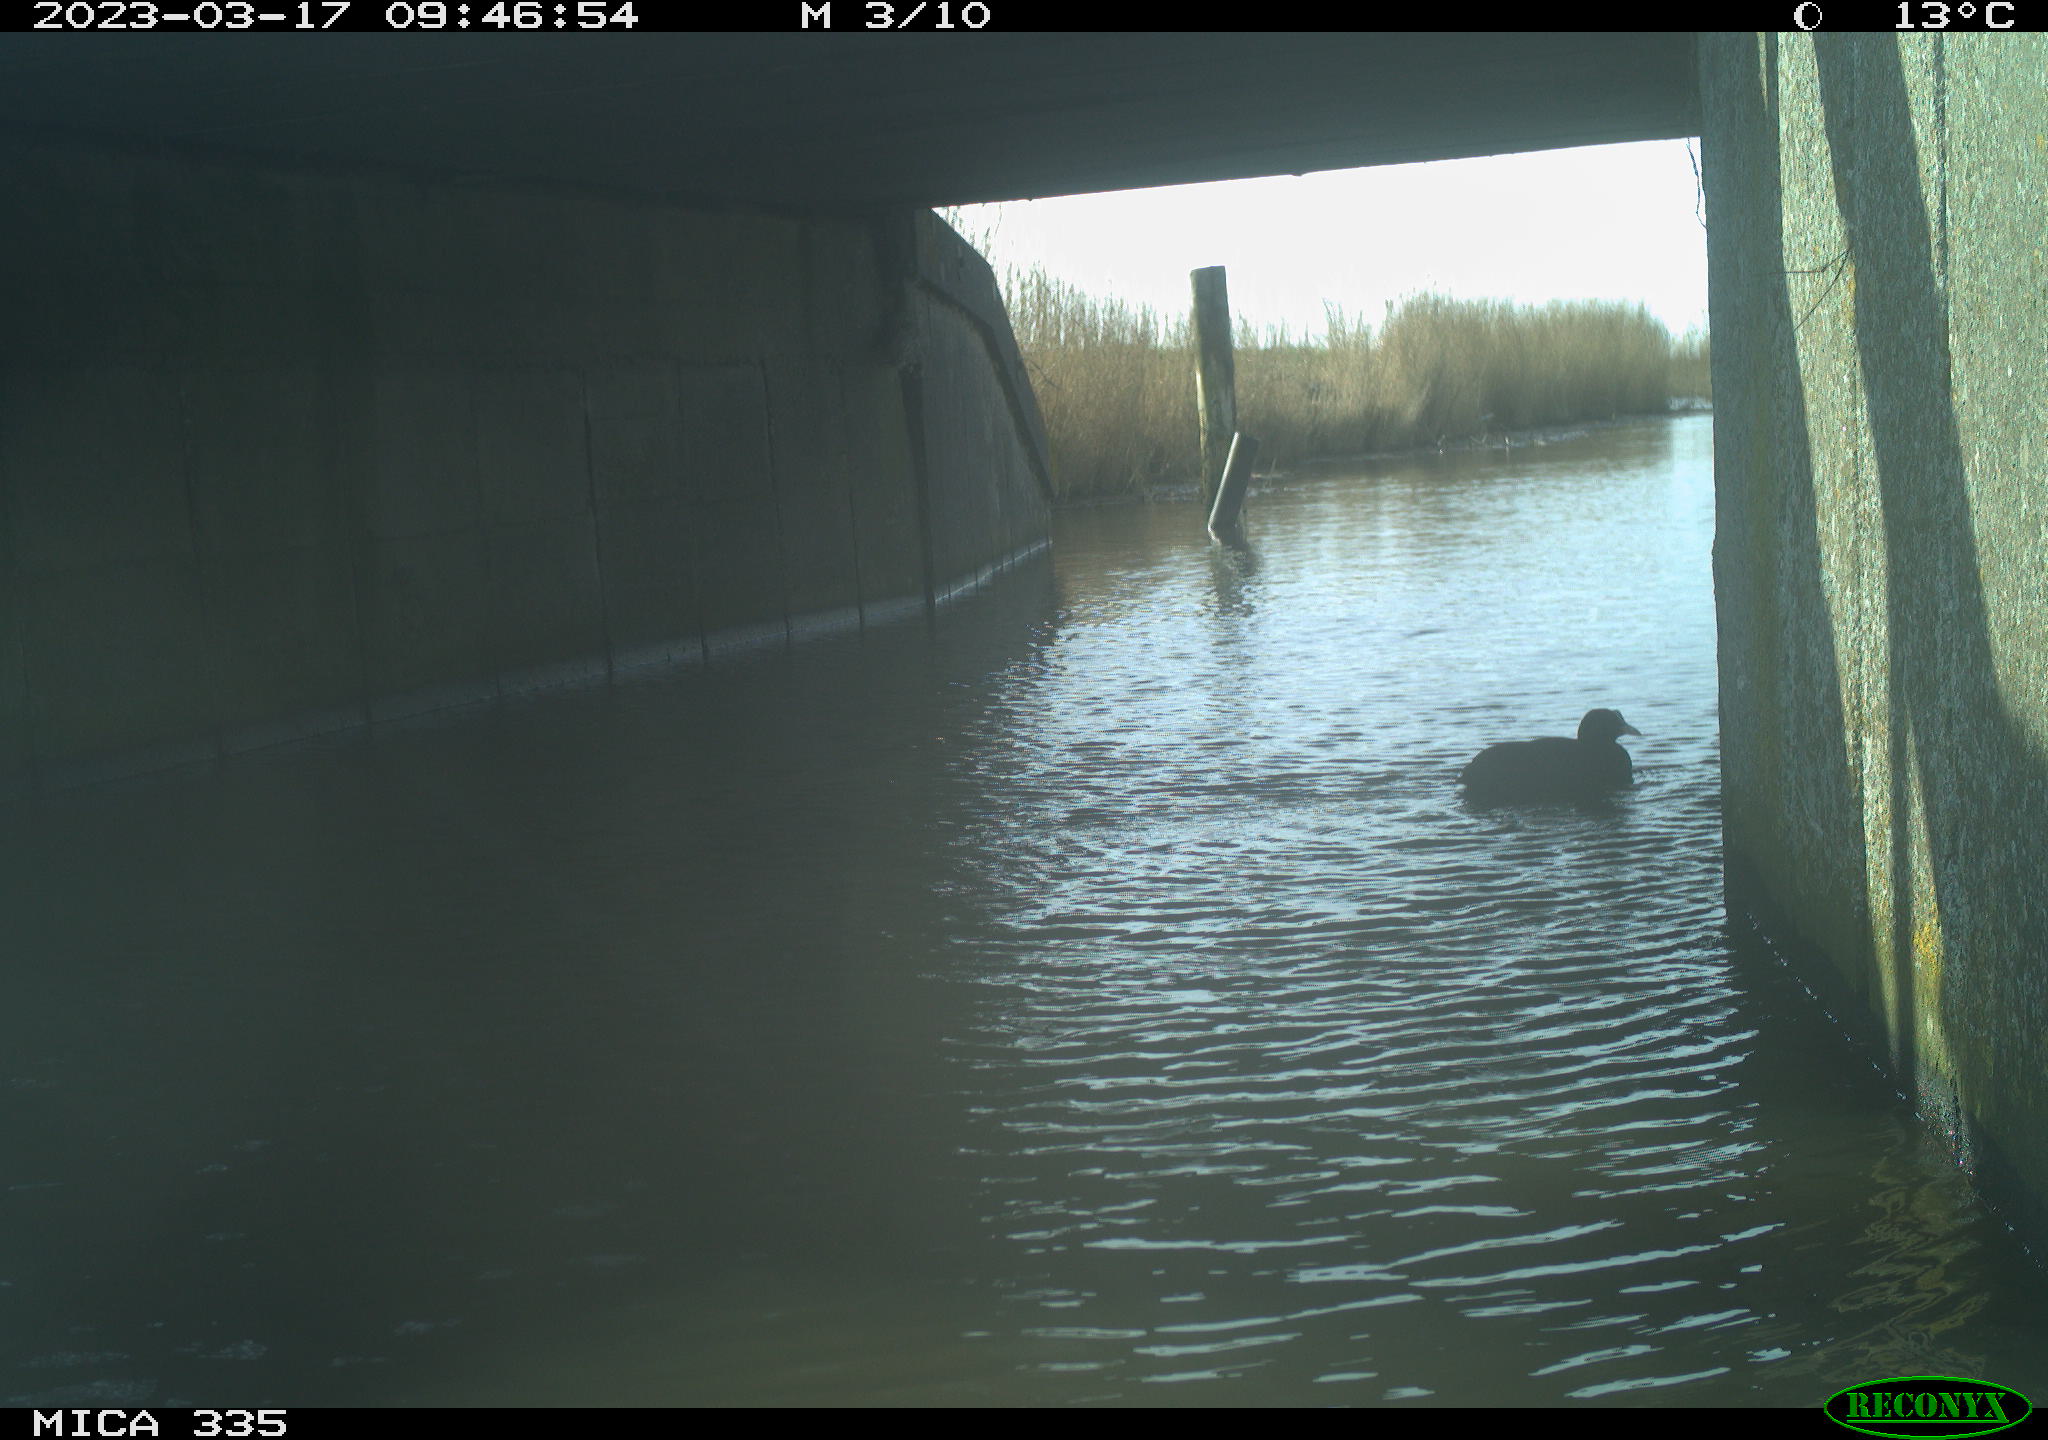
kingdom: Animalia
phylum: Chordata
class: Aves
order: Gruiformes
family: Rallidae
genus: Fulica
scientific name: Fulica atra
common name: Eurasian coot
